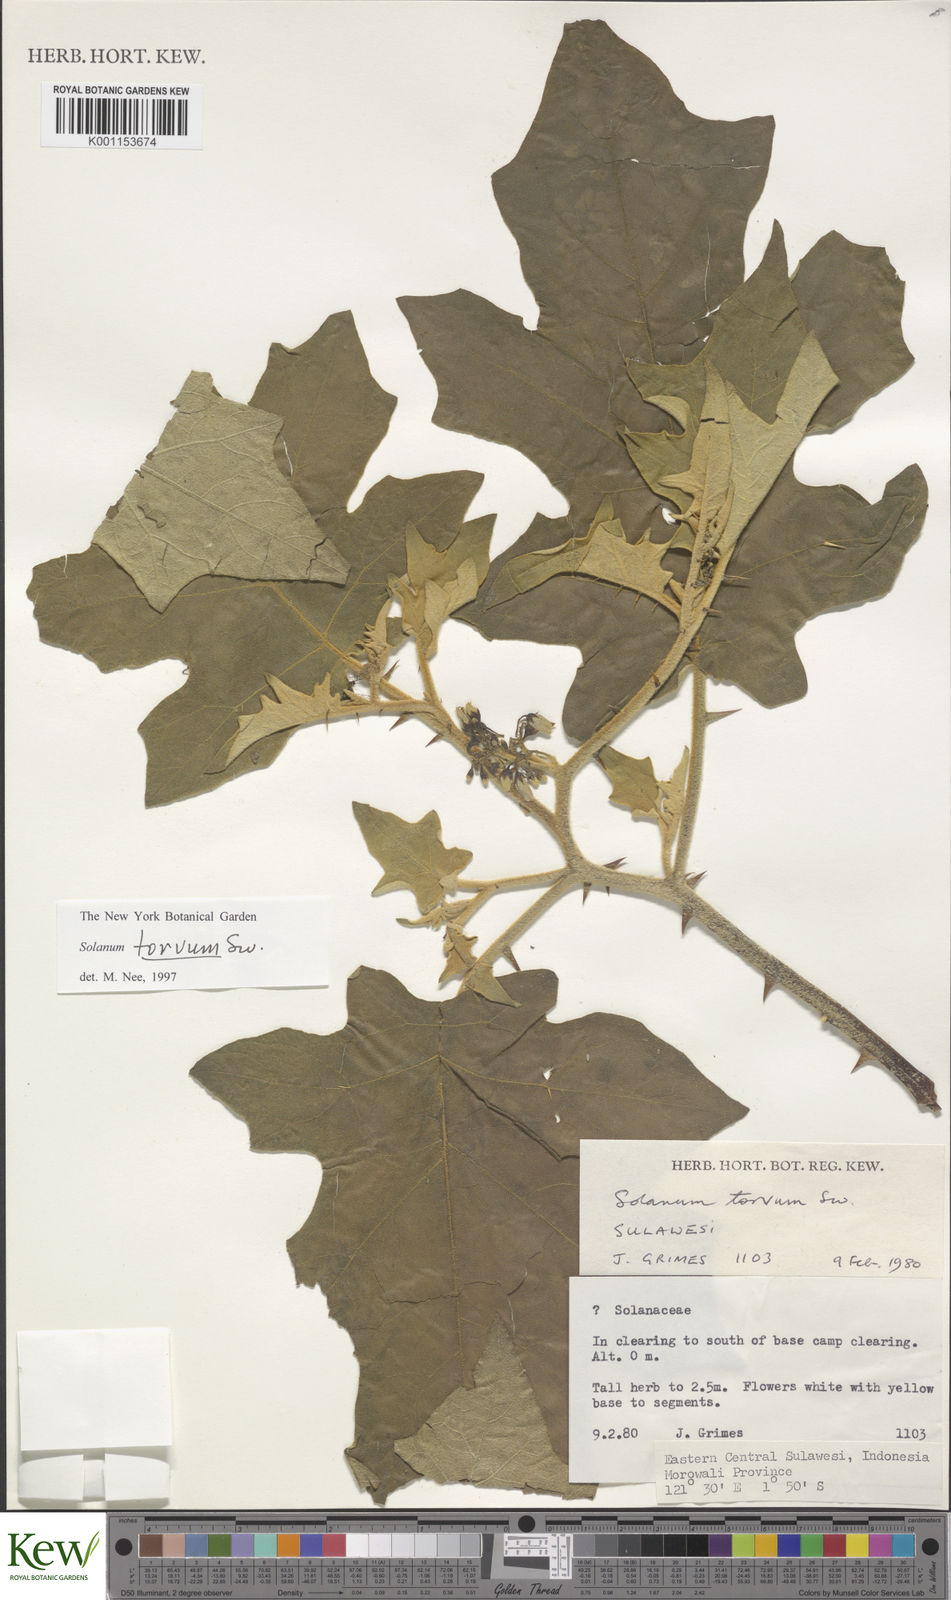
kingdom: Plantae
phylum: Tracheophyta
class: Magnoliopsida
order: Solanales
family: Solanaceae
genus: Solanum
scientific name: Solanum torvum
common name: Turkey berry
